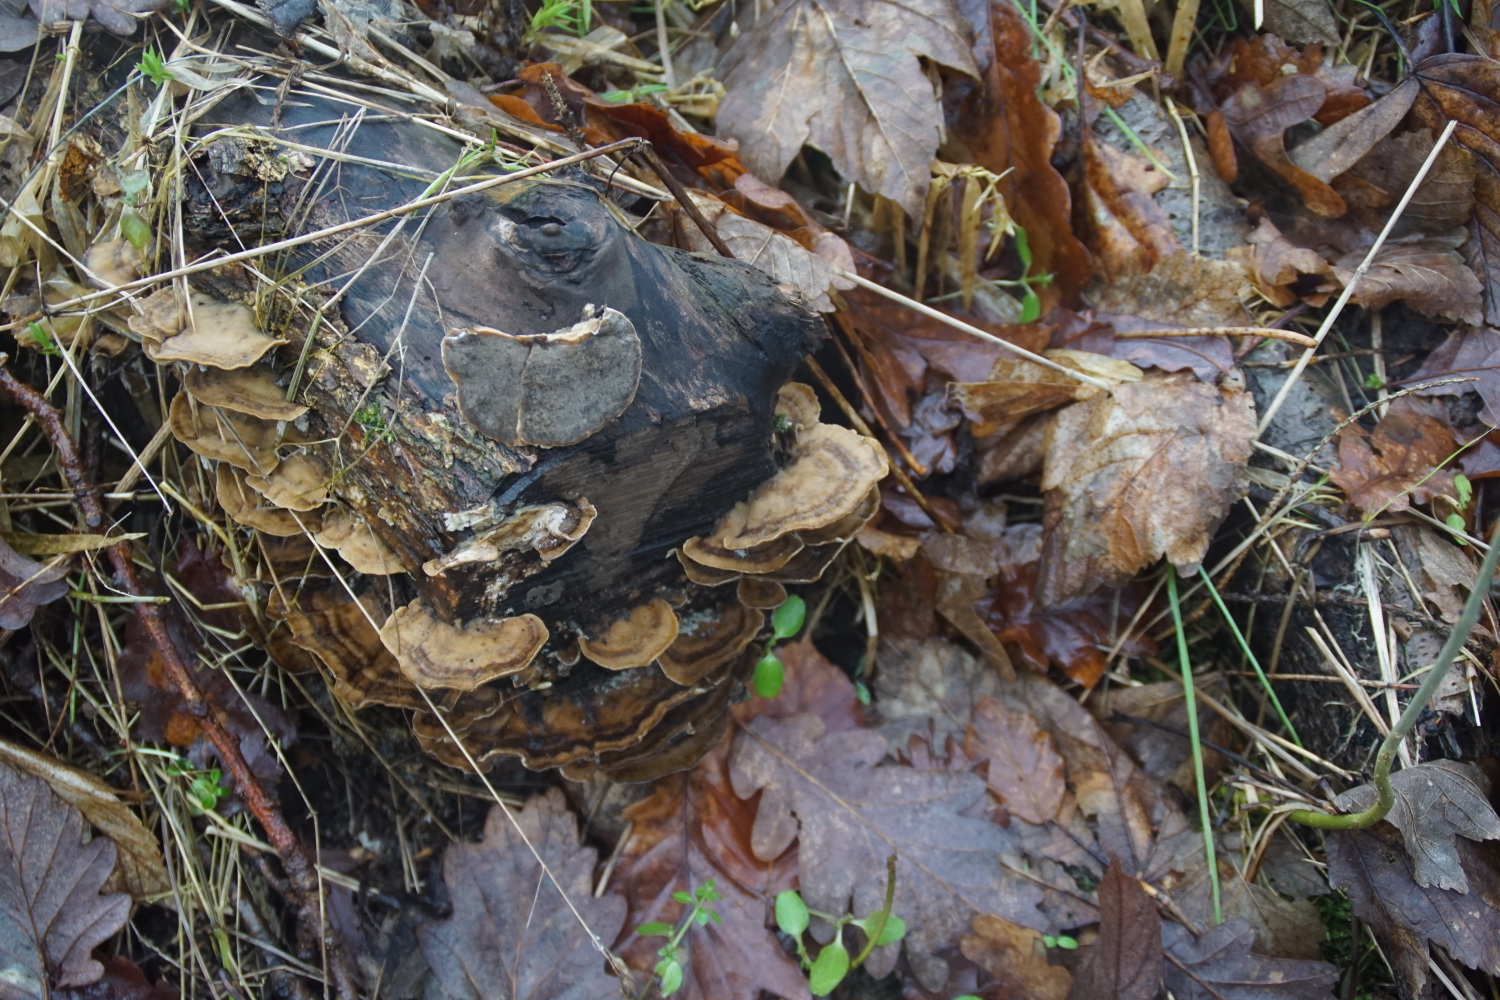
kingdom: Fungi
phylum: Basidiomycota
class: Agaricomycetes
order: Polyporales
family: Phanerochaetaceae
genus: Bjerkandera
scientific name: Bjerkandera adusta
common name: sveden sodporesvamp
